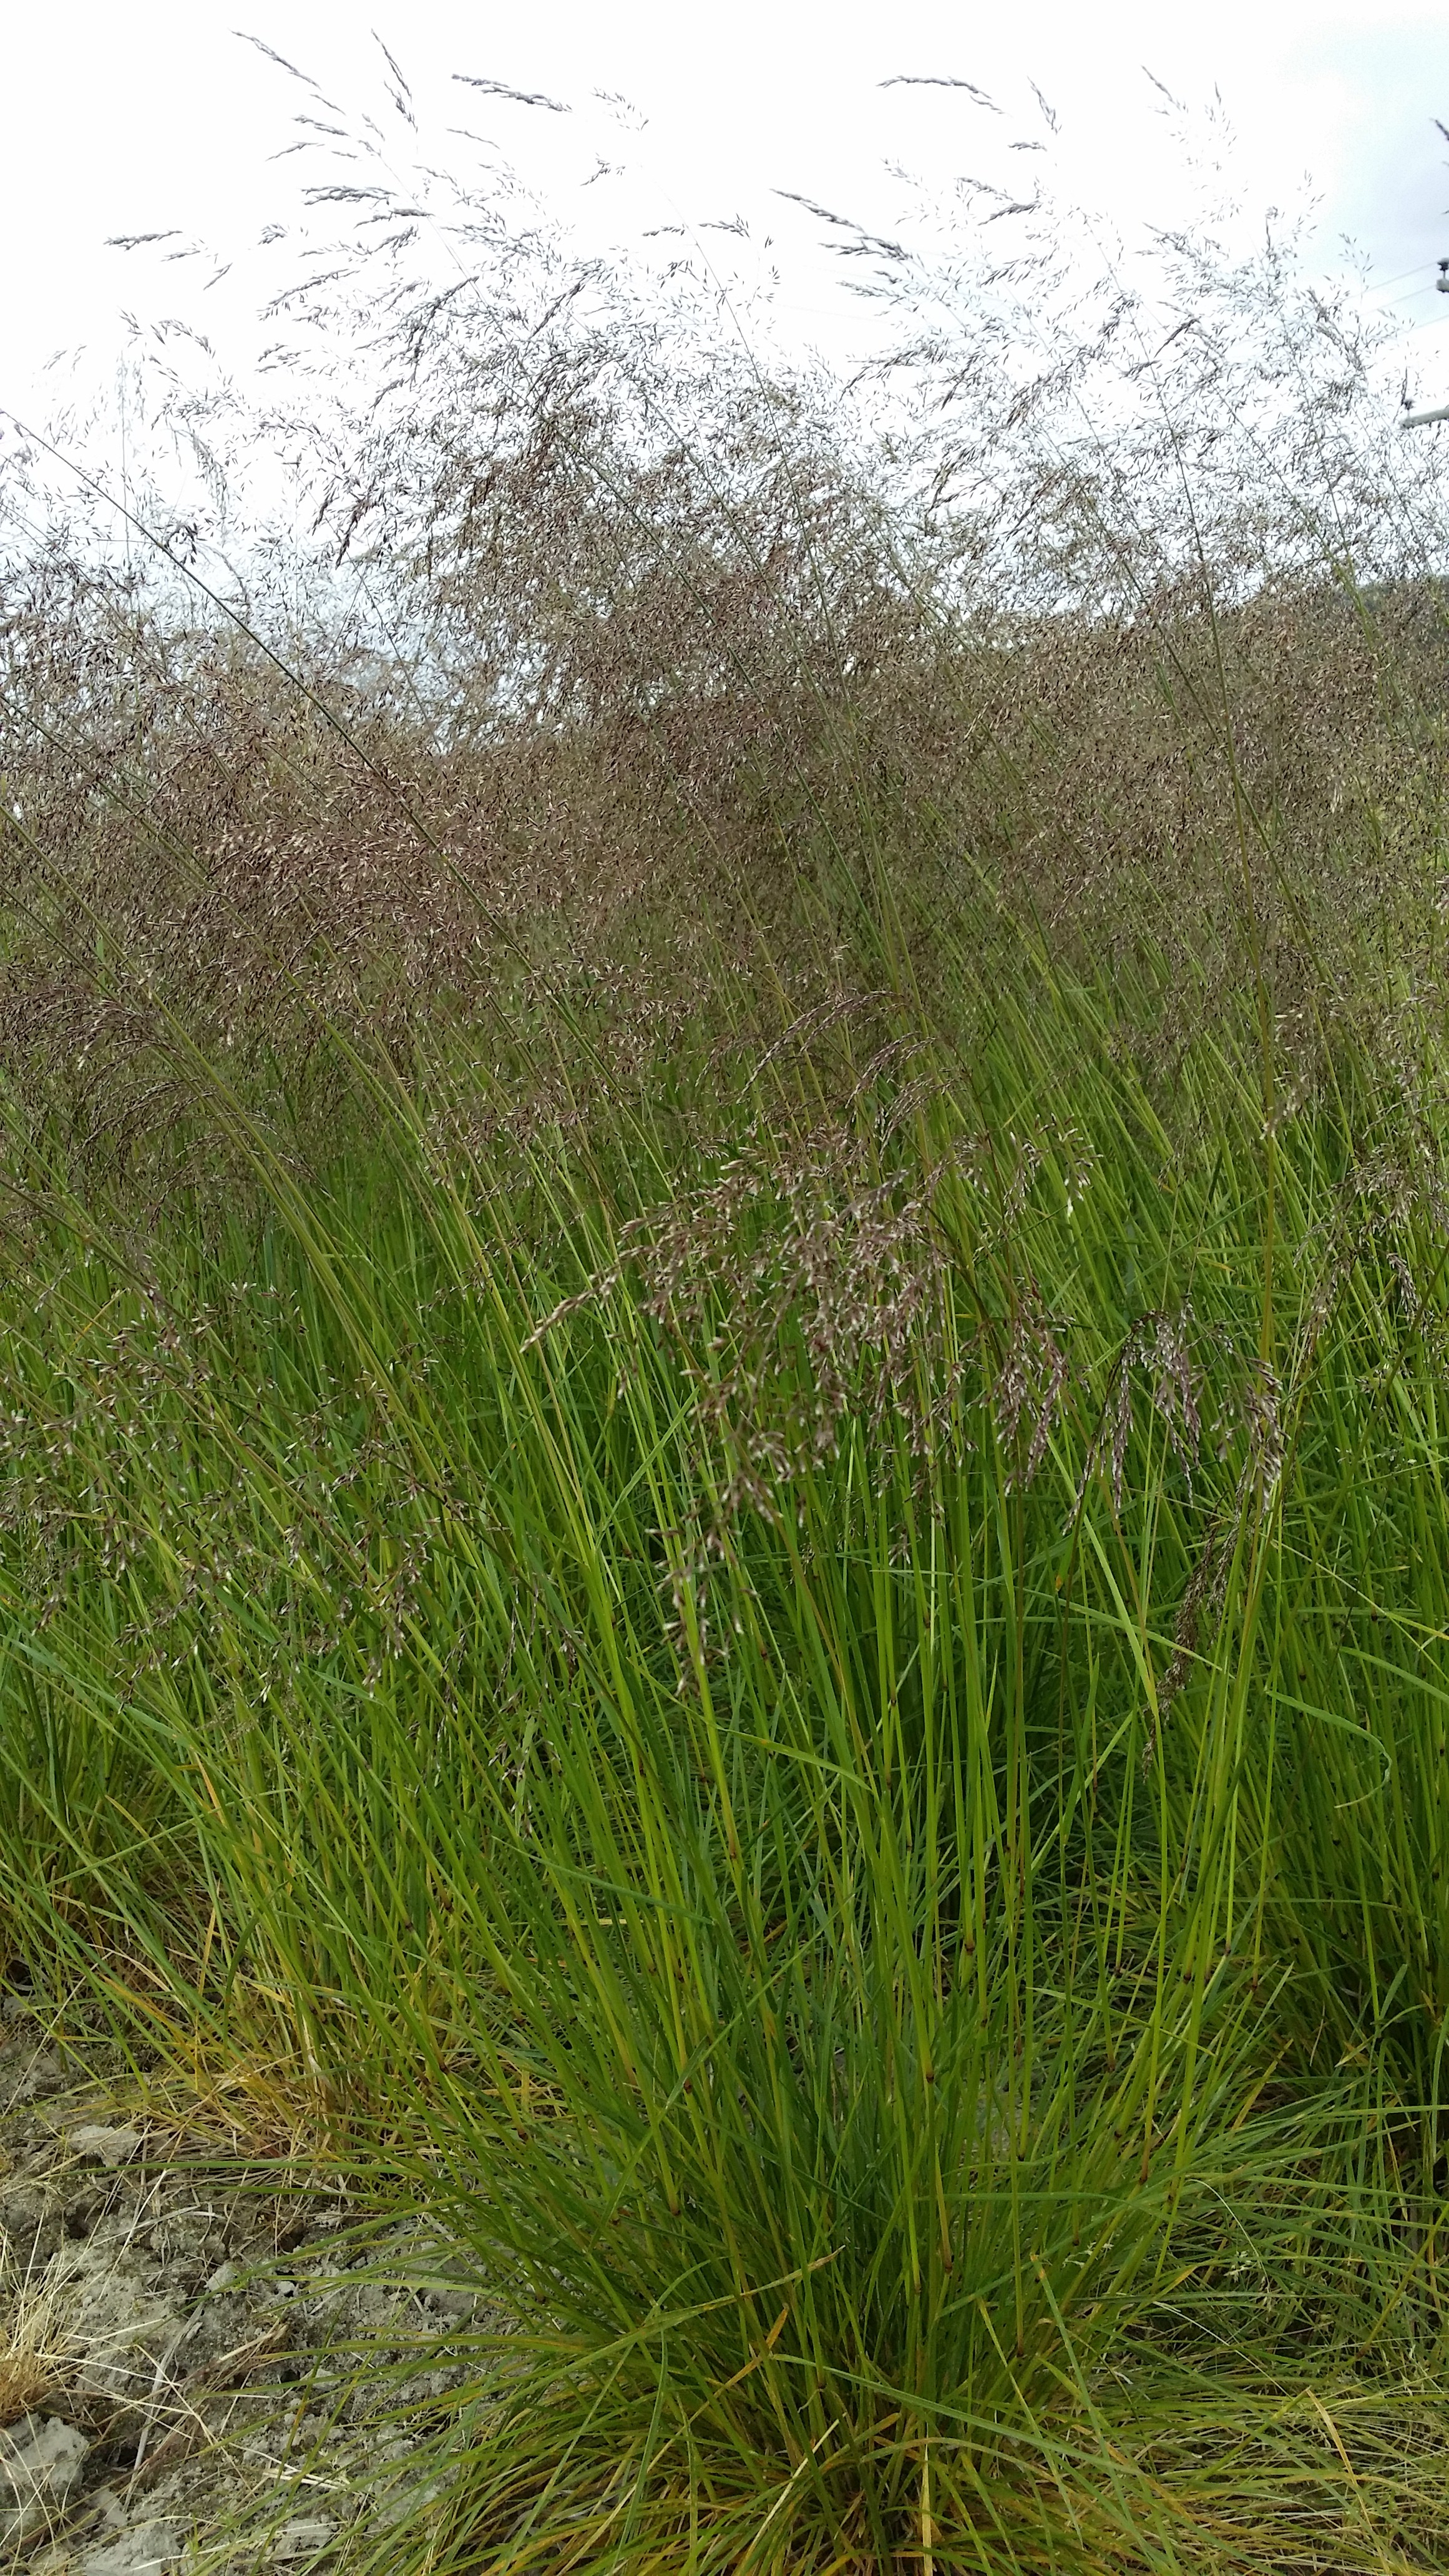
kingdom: Plantae
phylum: Tracheophyta
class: Liliopsida
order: Poales
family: Poaceae
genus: Deschampsia
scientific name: Deschampsia cespitosa
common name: Tufted hair-grass
